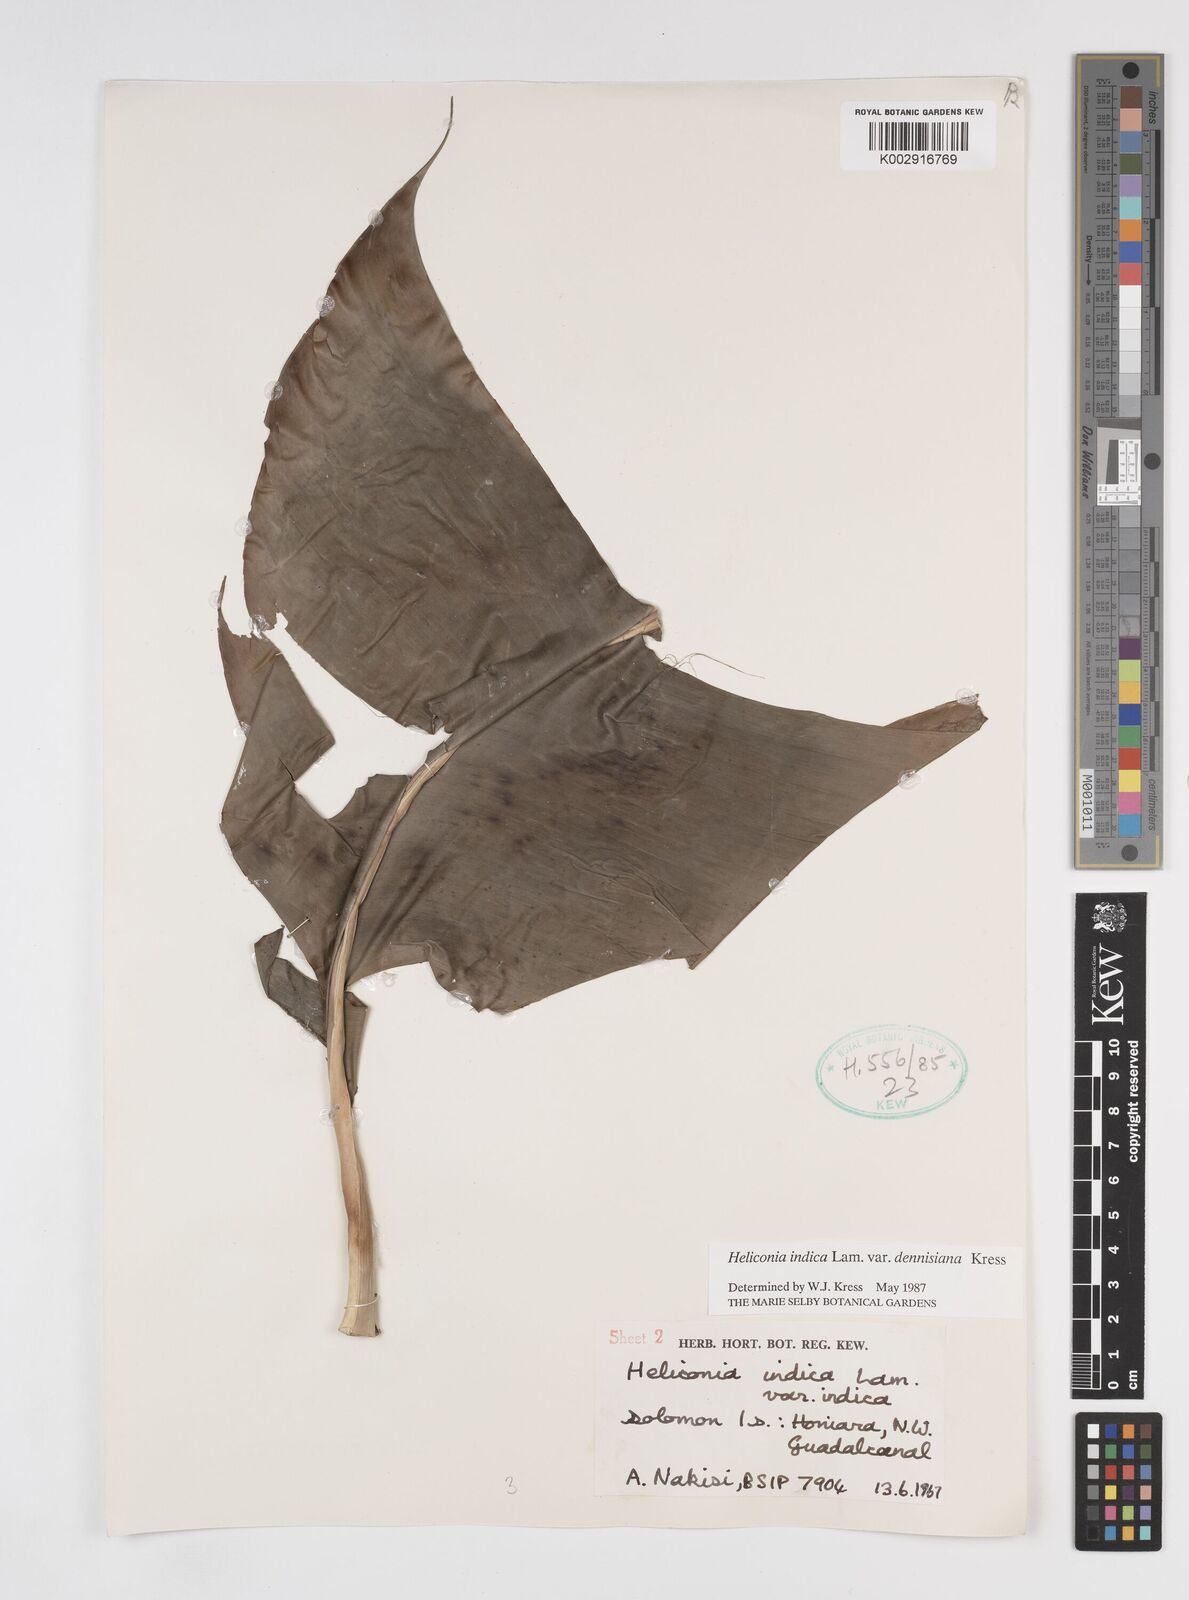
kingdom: Plantae
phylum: Tracheophyta
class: Liliopsida
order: Zingiberales
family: Heliconiaceae
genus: Heliconia
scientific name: Heliconia indica
